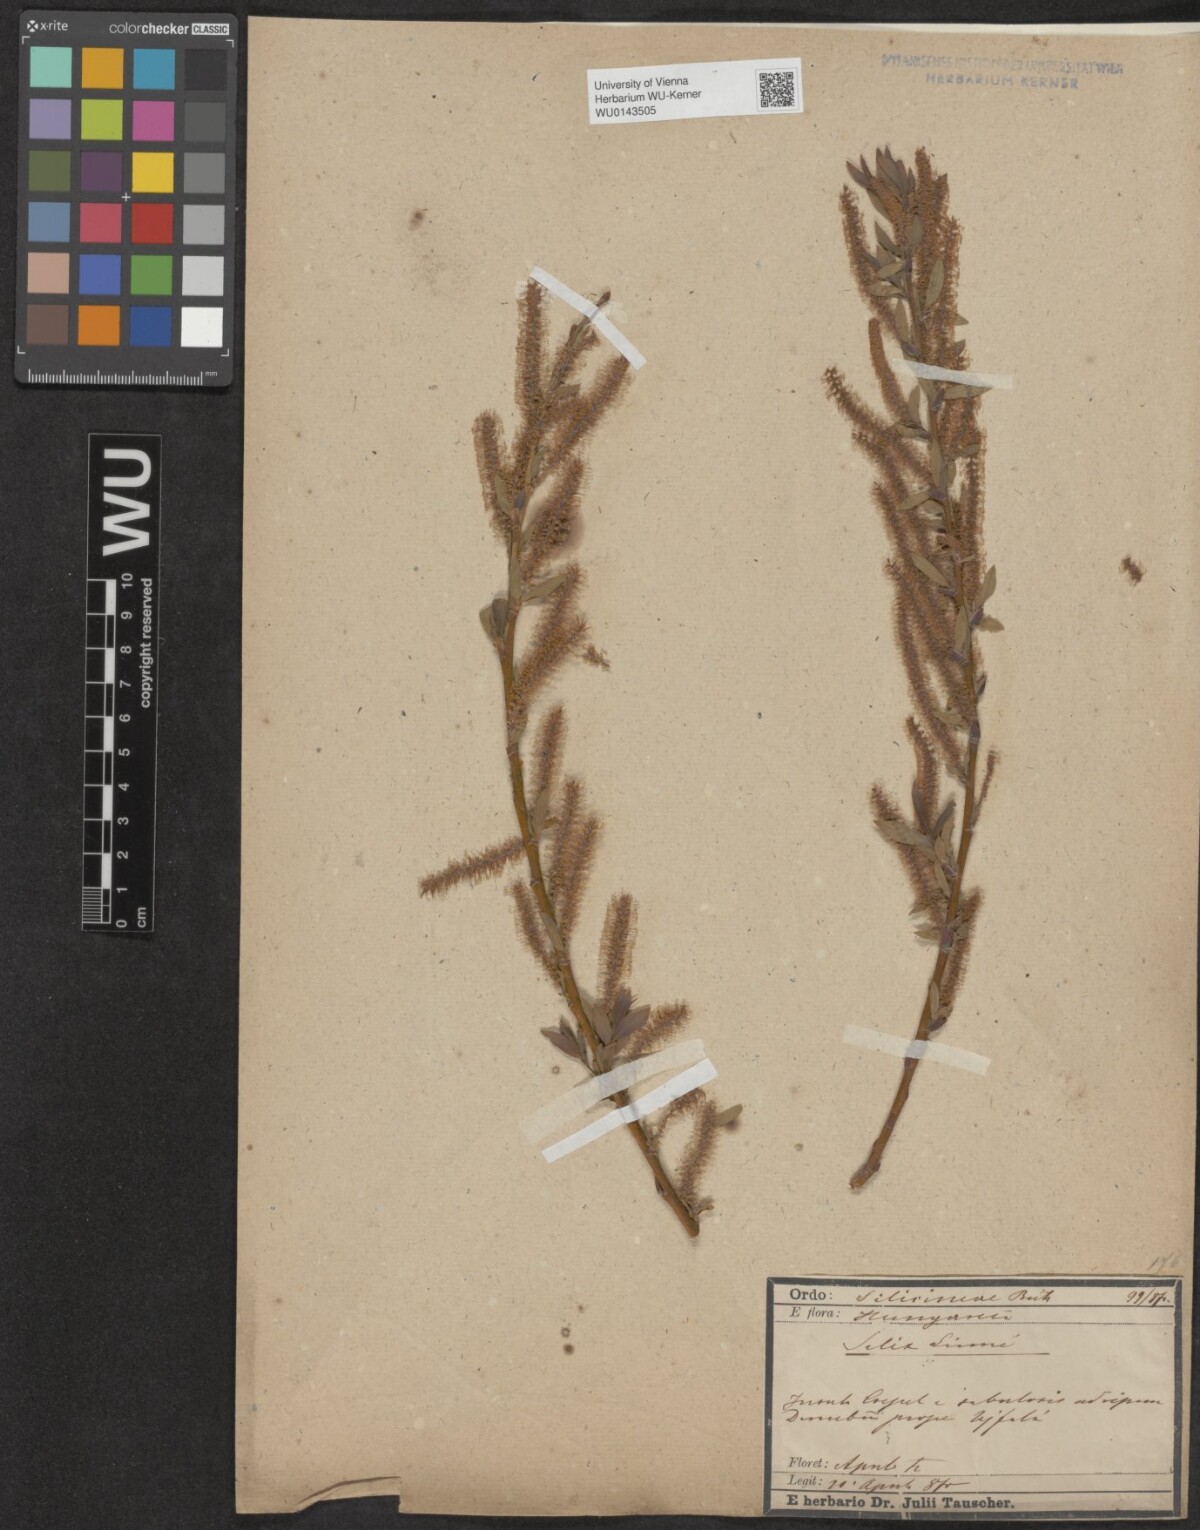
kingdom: Plantae
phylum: Tracheophyta
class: Magnoliopsida
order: Malpighiales
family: Salicaceae
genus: Salix
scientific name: Salix triandra
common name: Almond willow
